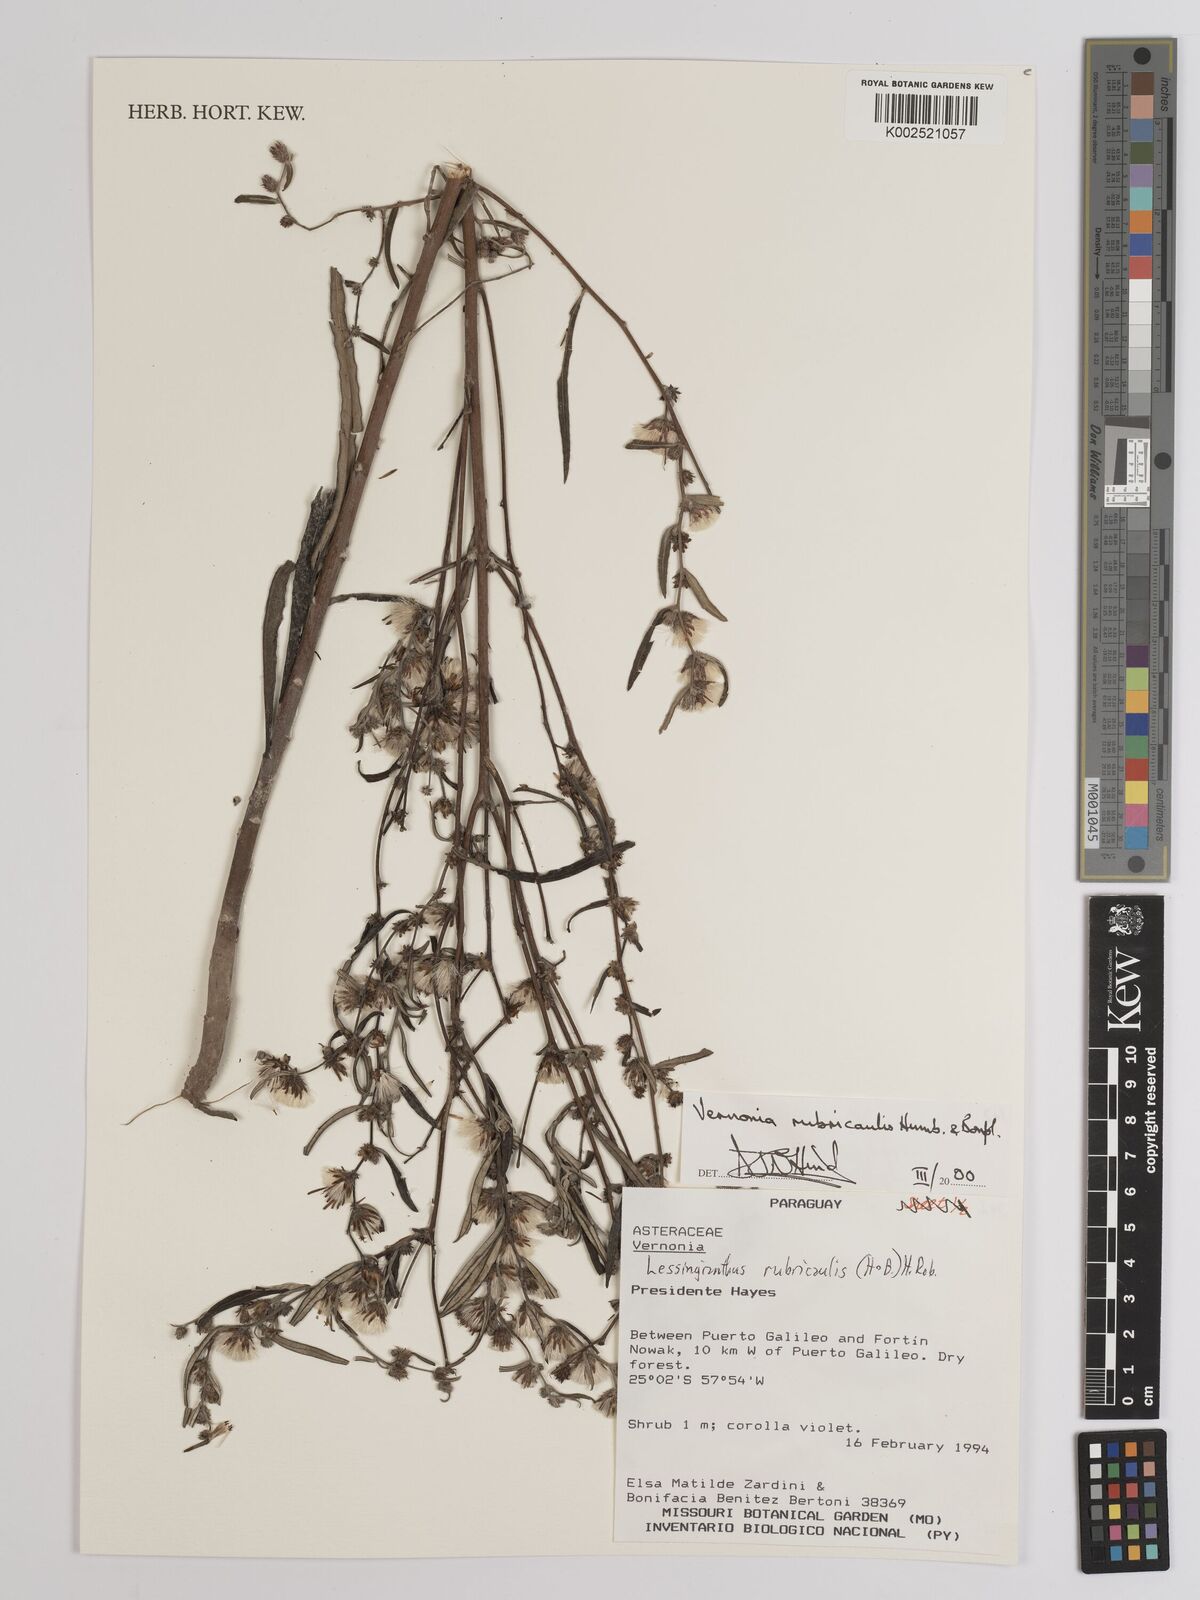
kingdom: Plantae
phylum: Tracheophyta
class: Magnoliopsida
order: Asterales
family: Asteraceae
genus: Lessingianthus
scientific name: Lessingianthus rubricaulis
